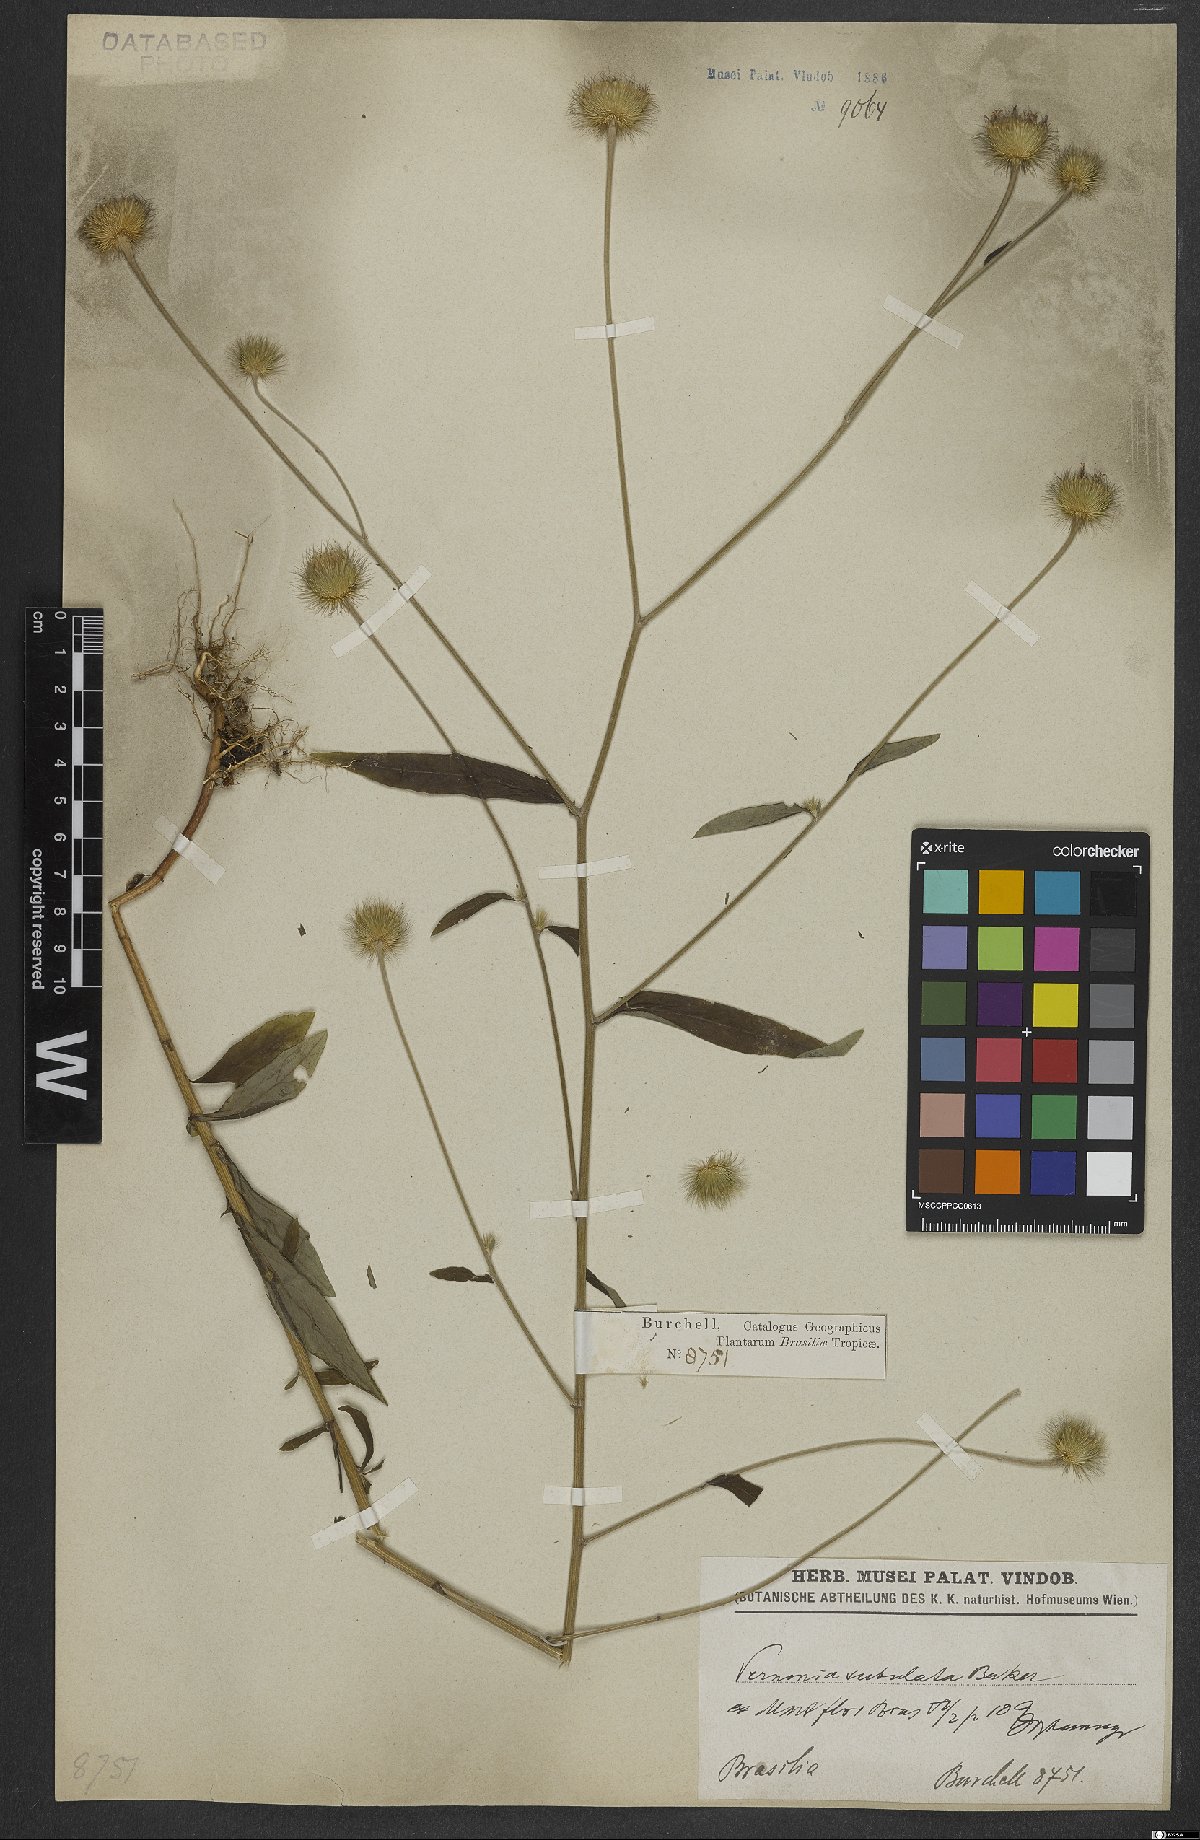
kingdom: Plantae
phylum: Tracheophyta
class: Magnoliopsida
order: Asterales
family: Asteraceae
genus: Echinocoryne
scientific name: Echinocoryne subulata
